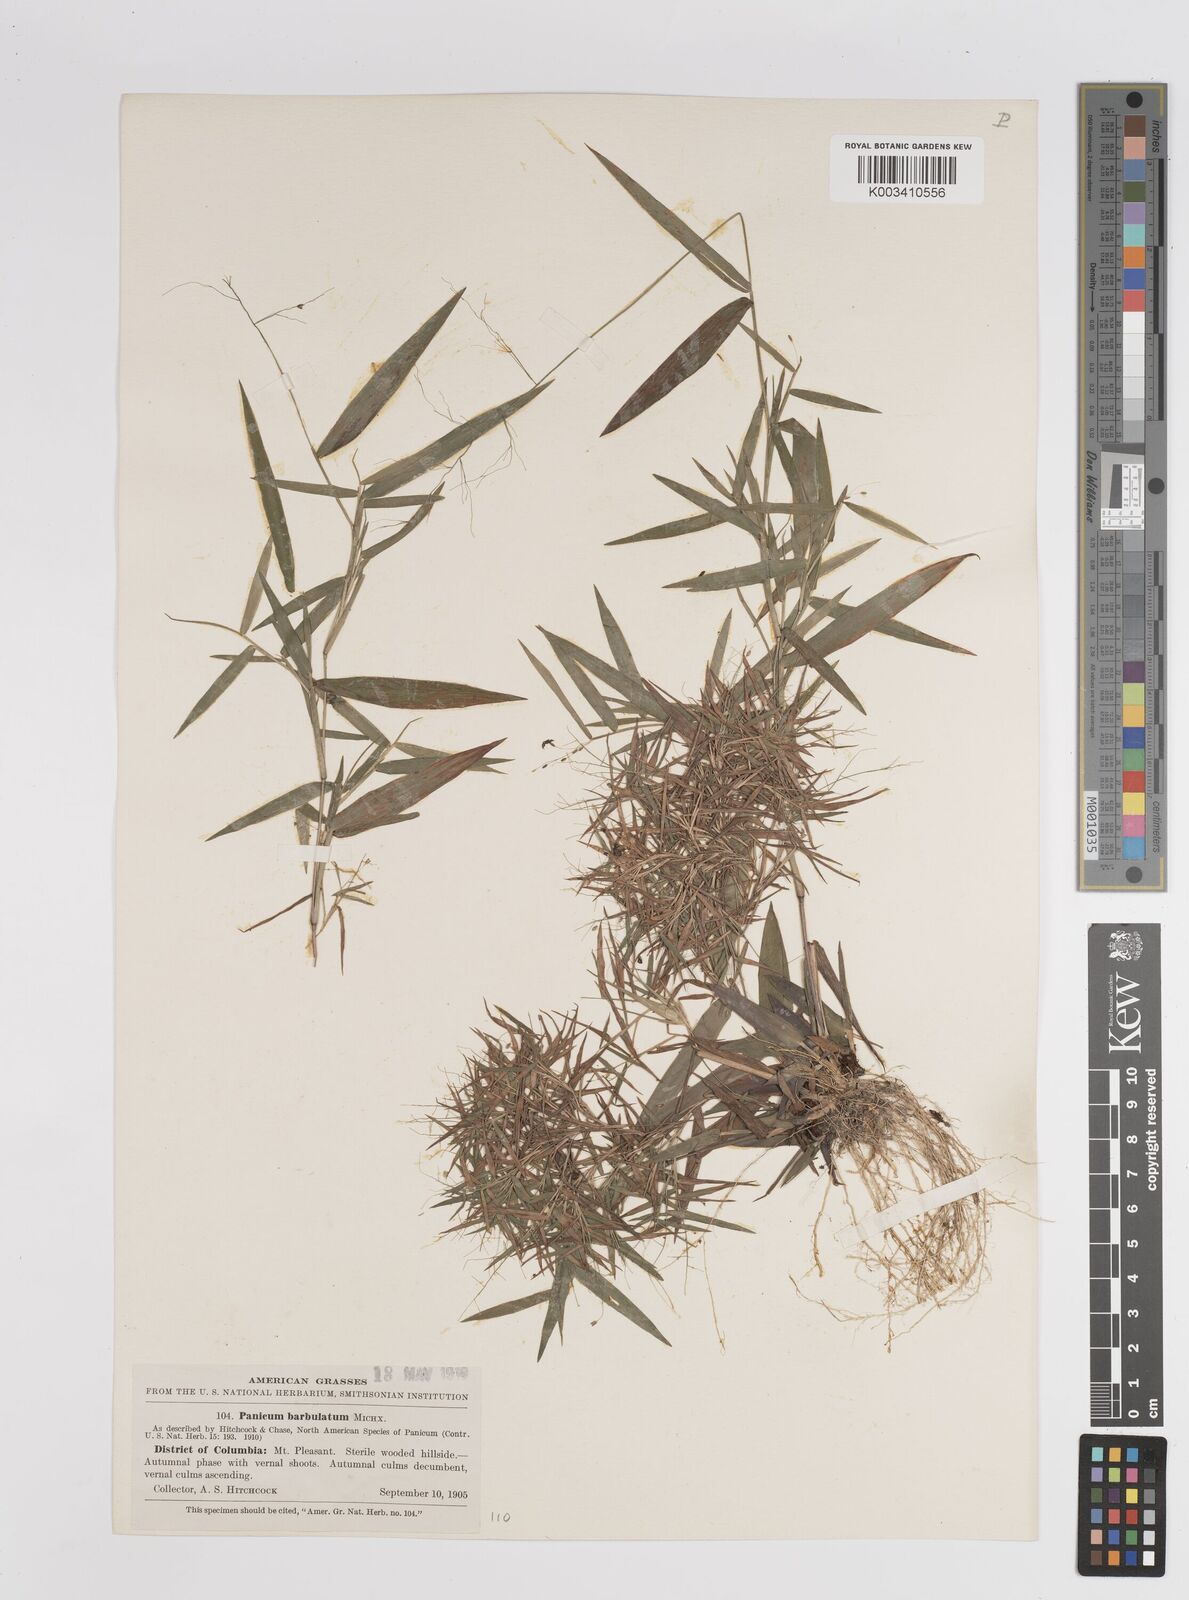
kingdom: Plantae
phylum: Tracheophyta
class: Liliopsida
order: Poales
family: Poaceae
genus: Dichanthelium
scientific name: Dichanthelium dichotomum
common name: Cypress panicgrass
